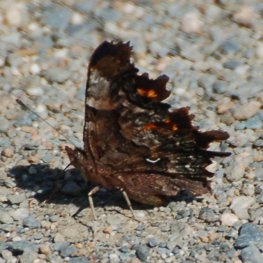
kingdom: Animalia
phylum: Arthropoda
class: Insecta
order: Lepidoptera
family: Nymphalidae
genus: Polygonia
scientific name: Polygonia faunus
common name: Green Comma
